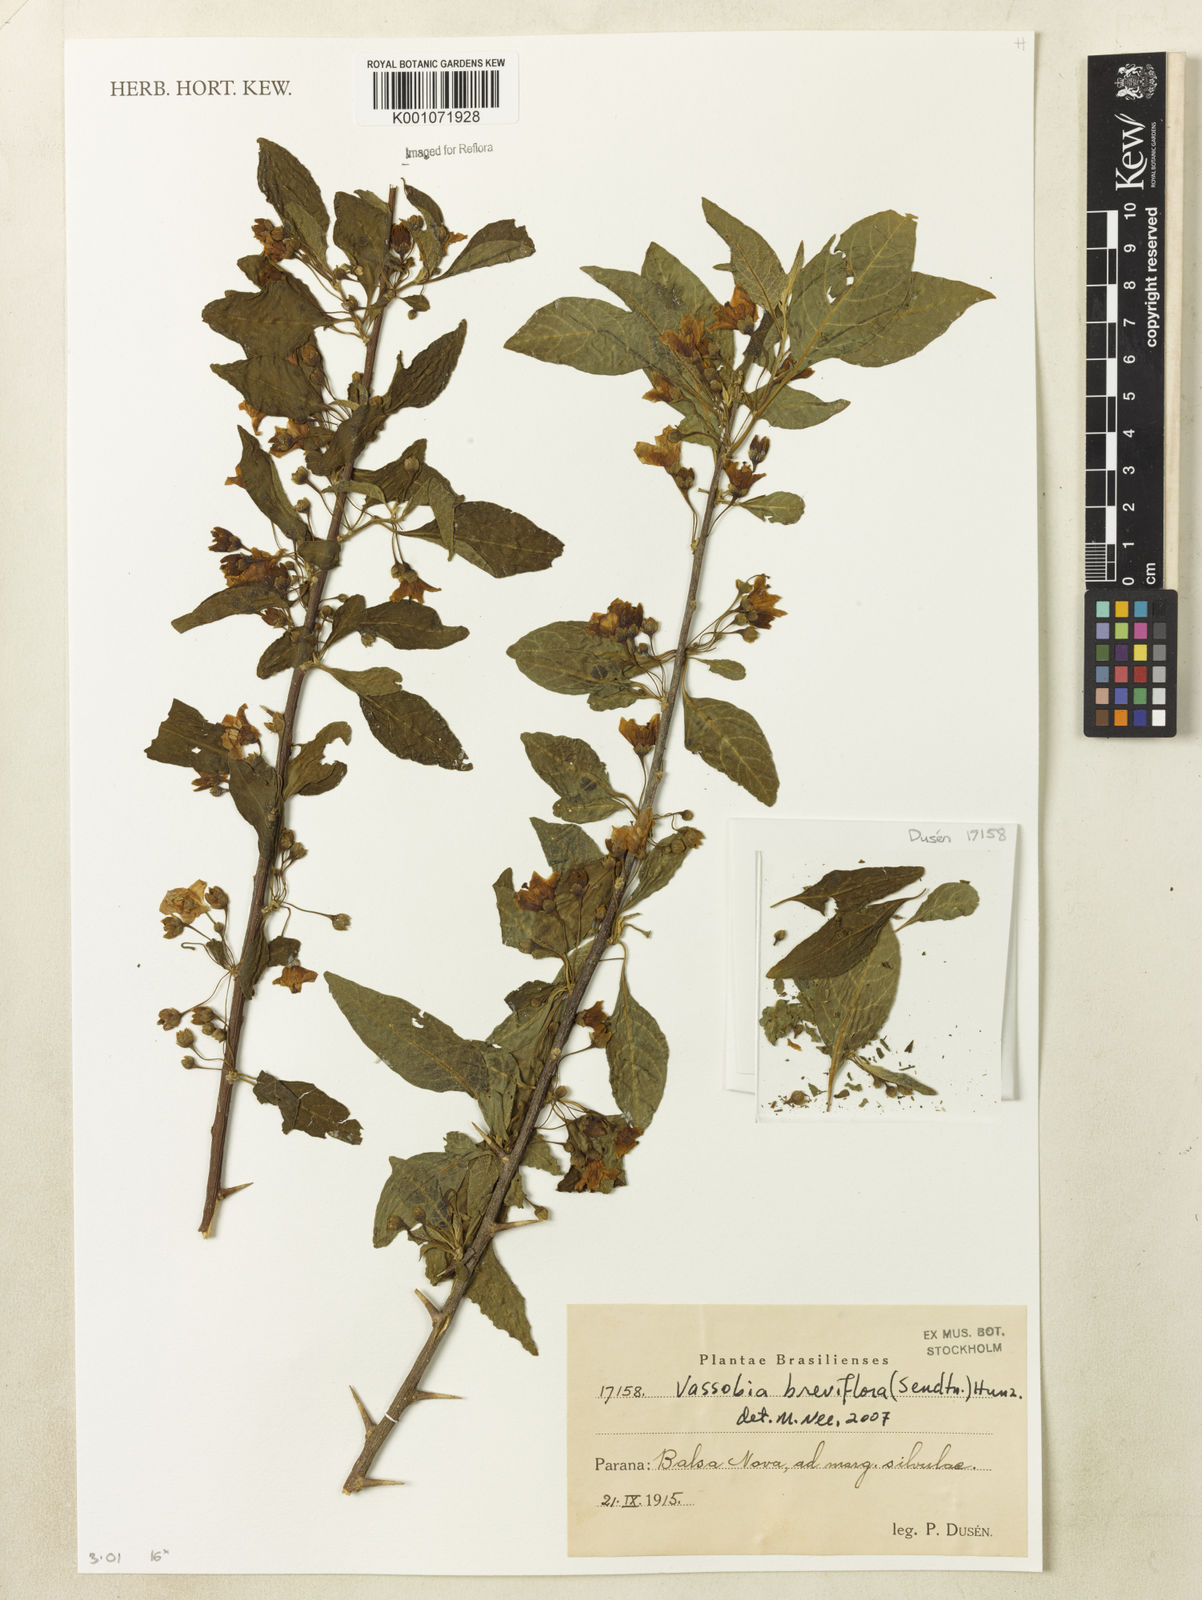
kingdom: Plantae
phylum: Tracheophyta
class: Magnoliopsida
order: Solanales
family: Solanaceae
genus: Vassobia
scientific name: Vassobia breviflora
